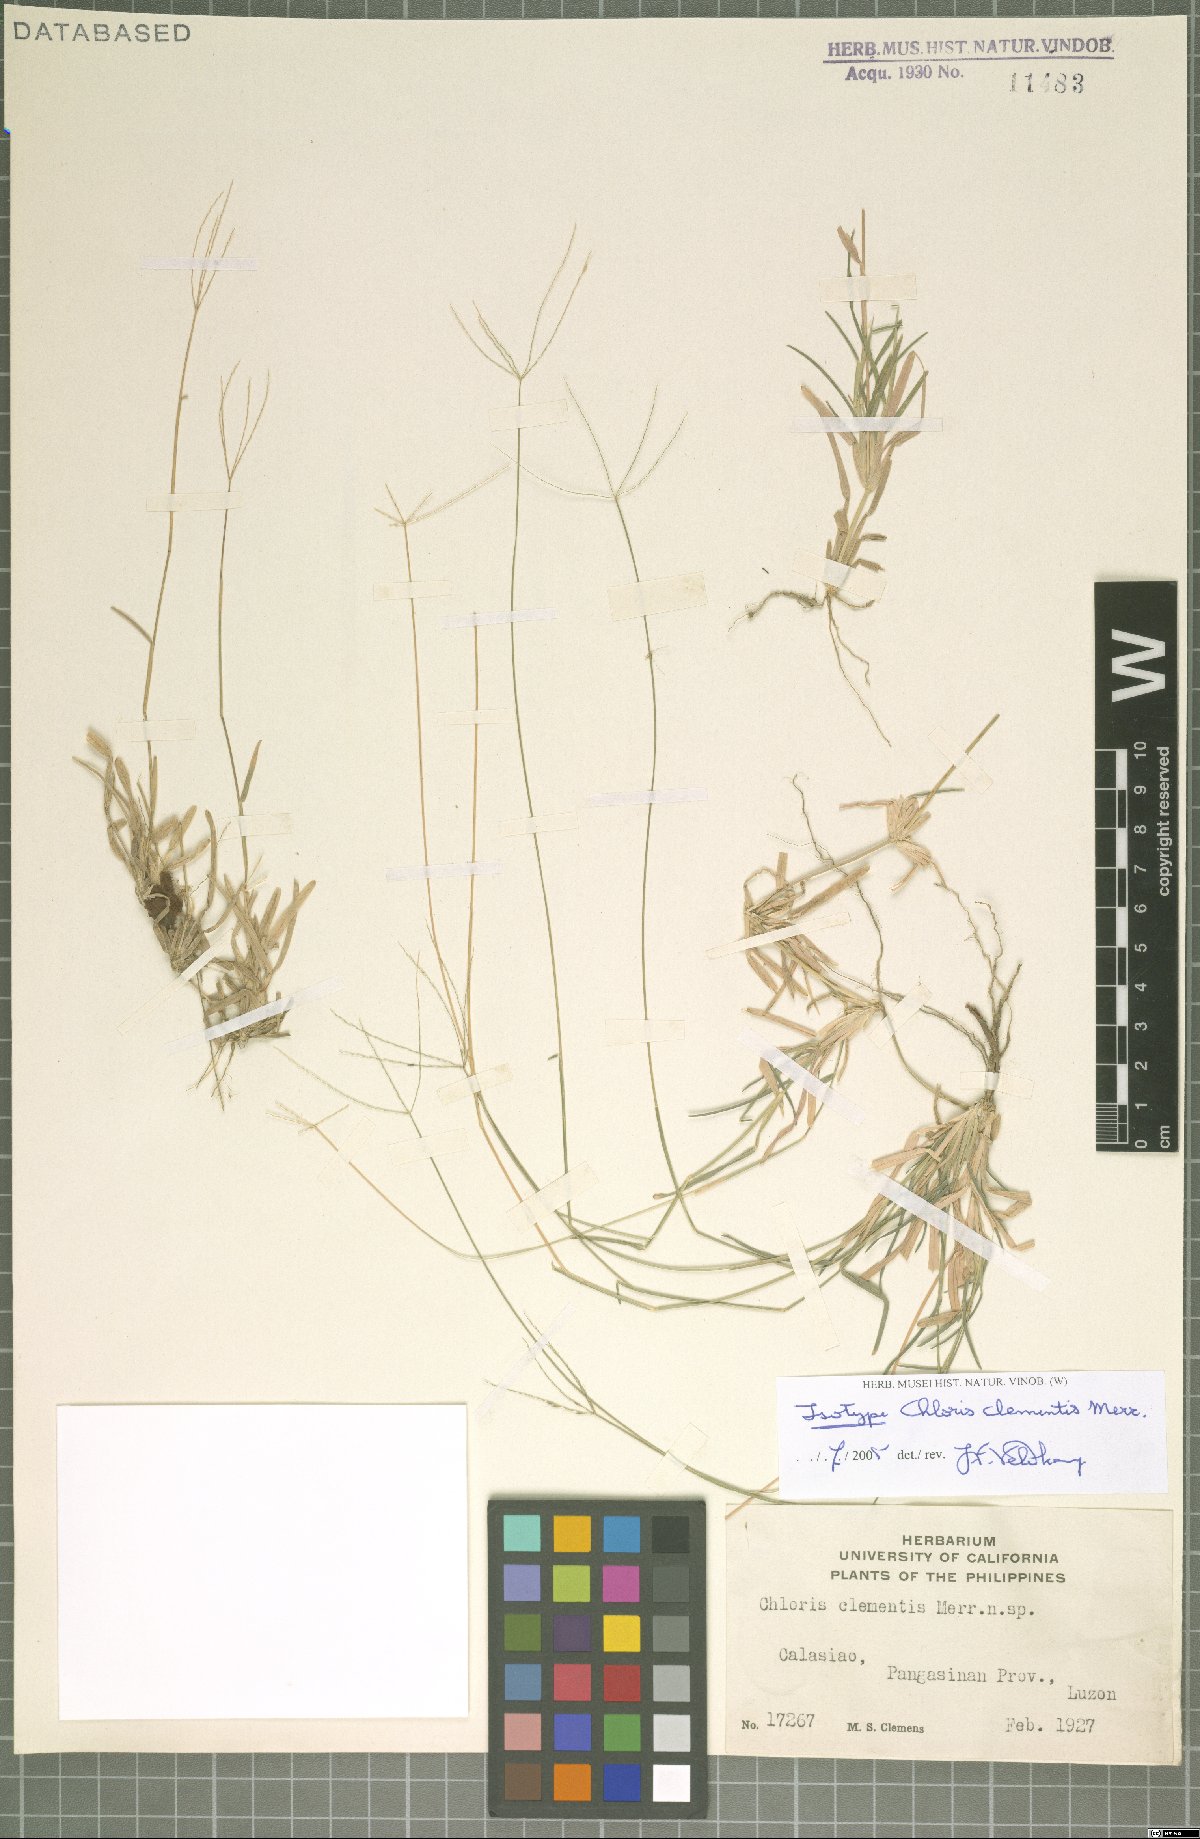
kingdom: Plantae
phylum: Tracheophyta
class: Liliopsida
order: Poales
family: Poaceae
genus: Chloris
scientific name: Chloris clementis
